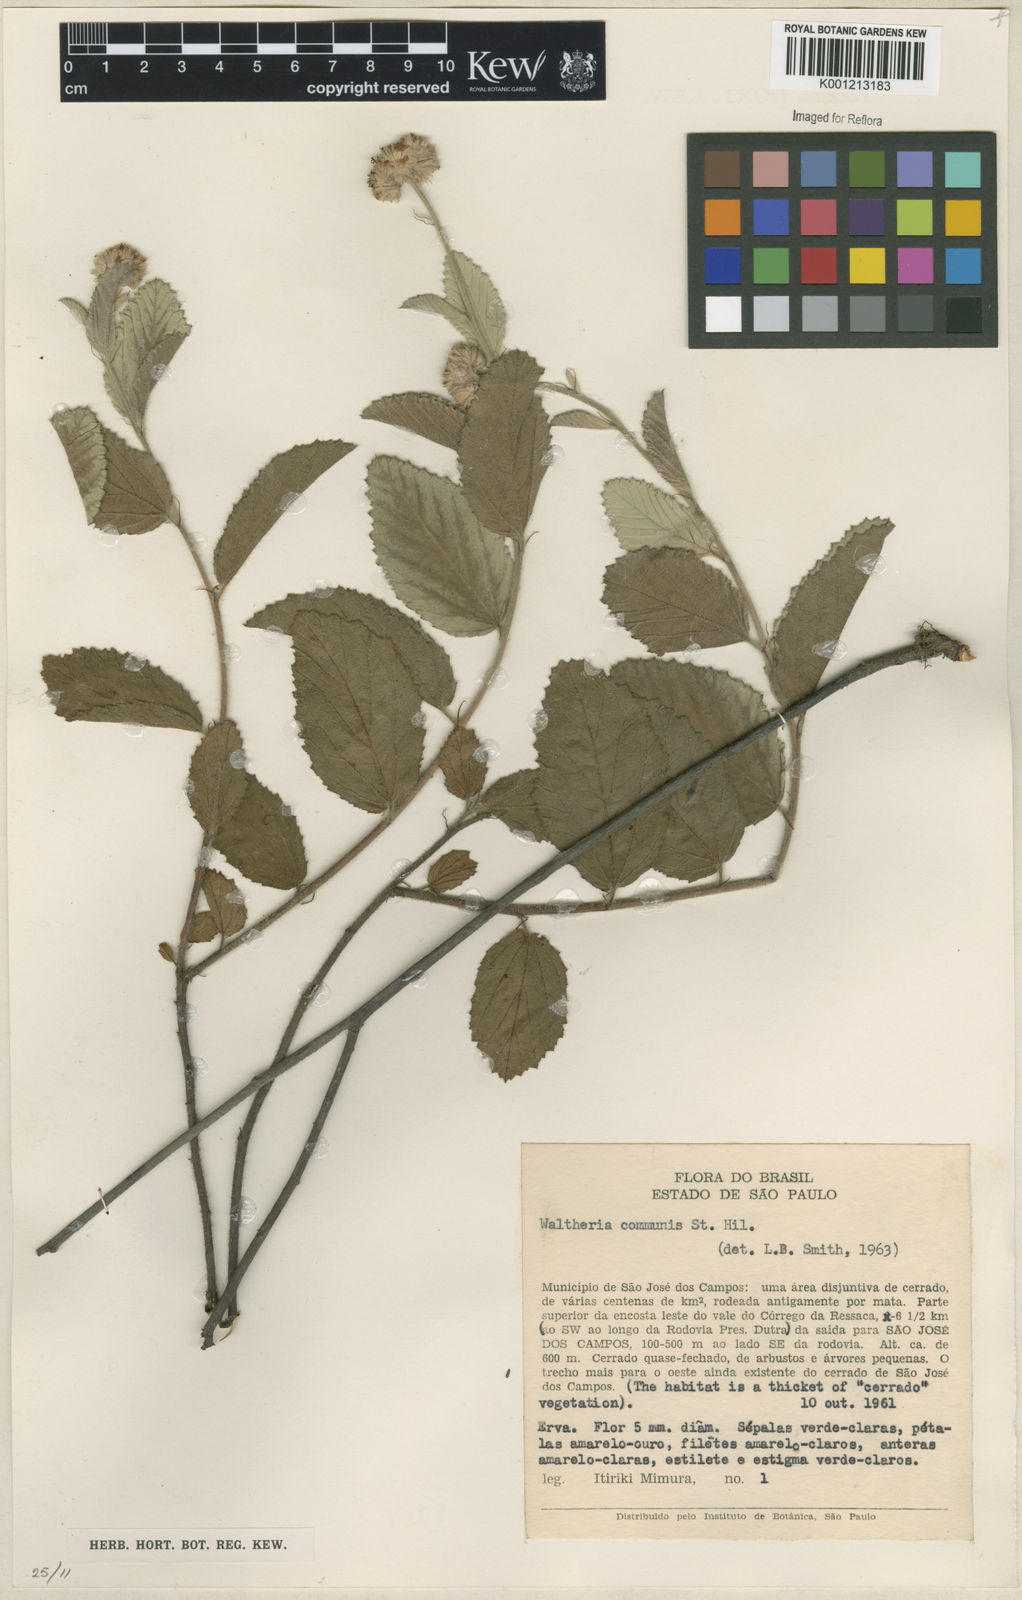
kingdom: Plantae
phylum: Tracheophyta
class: Magnoliopsida
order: Malvales
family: Malvaceae
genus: Waltheria
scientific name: Waltheria communis
